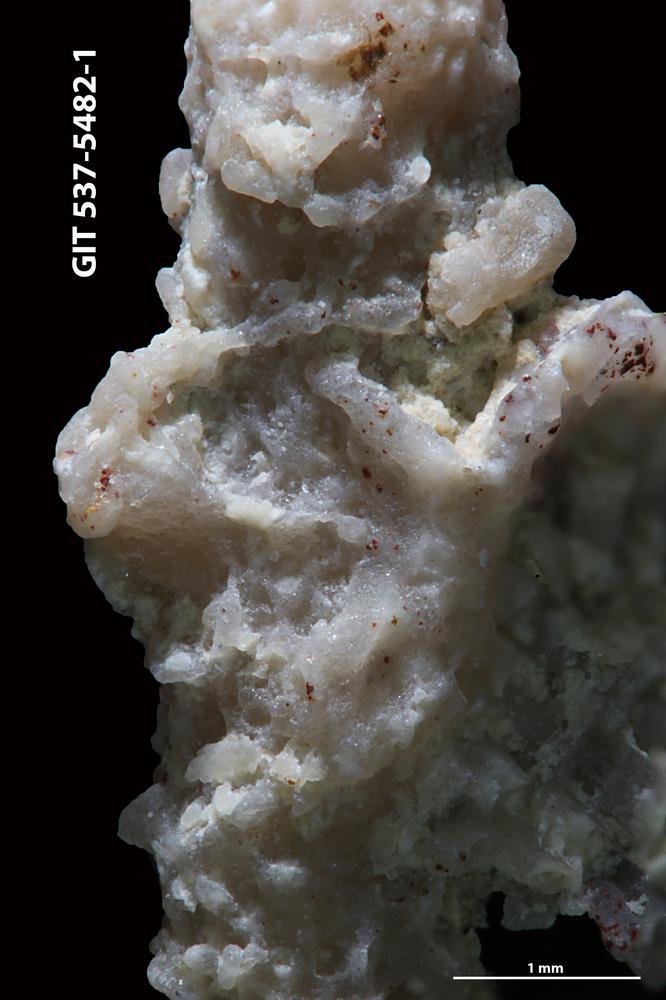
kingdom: Animalia
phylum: Bryozoa
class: Stenolaemata
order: Cyclostomatida
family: Corynotrypidae
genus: Corynotrypa
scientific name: Corynotrypa
